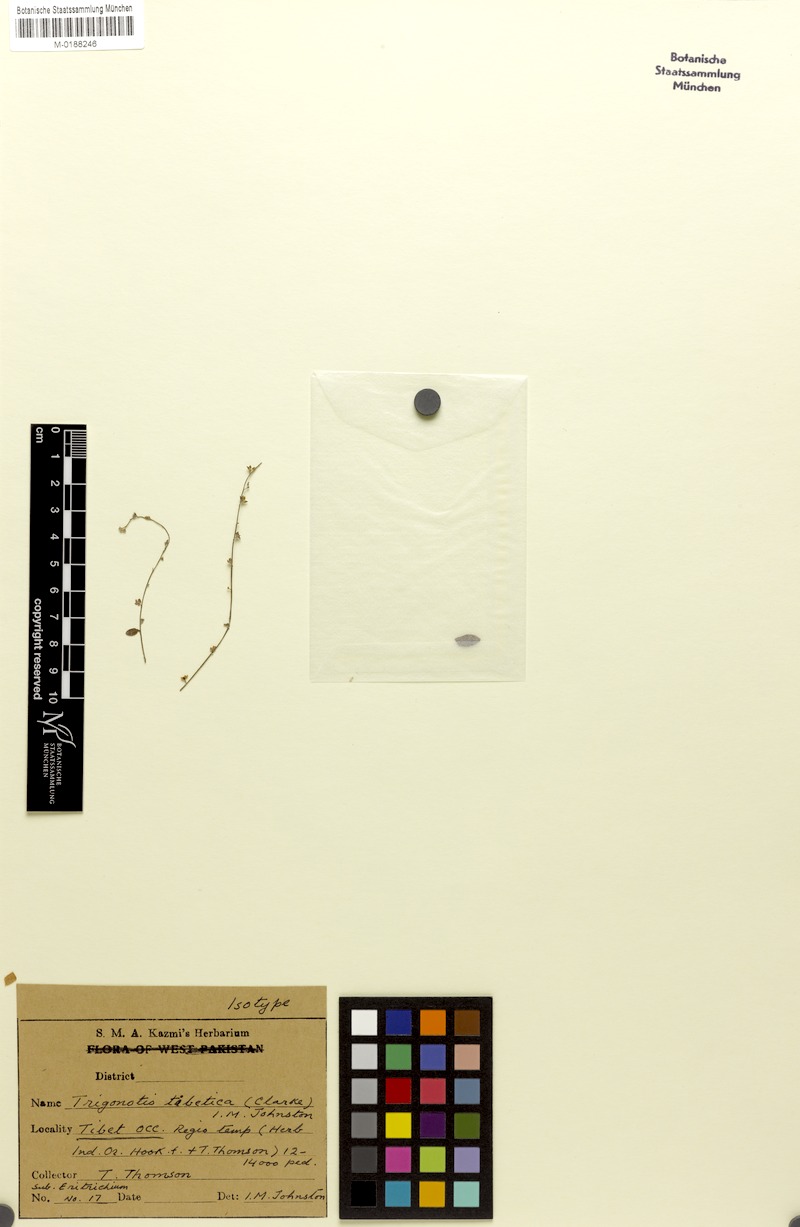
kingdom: Plantae
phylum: Tracheophyta
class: Magnoliopsida
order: Boraginales
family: Boraginaceae
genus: Trigonotis
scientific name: Trigonotis tibetica
